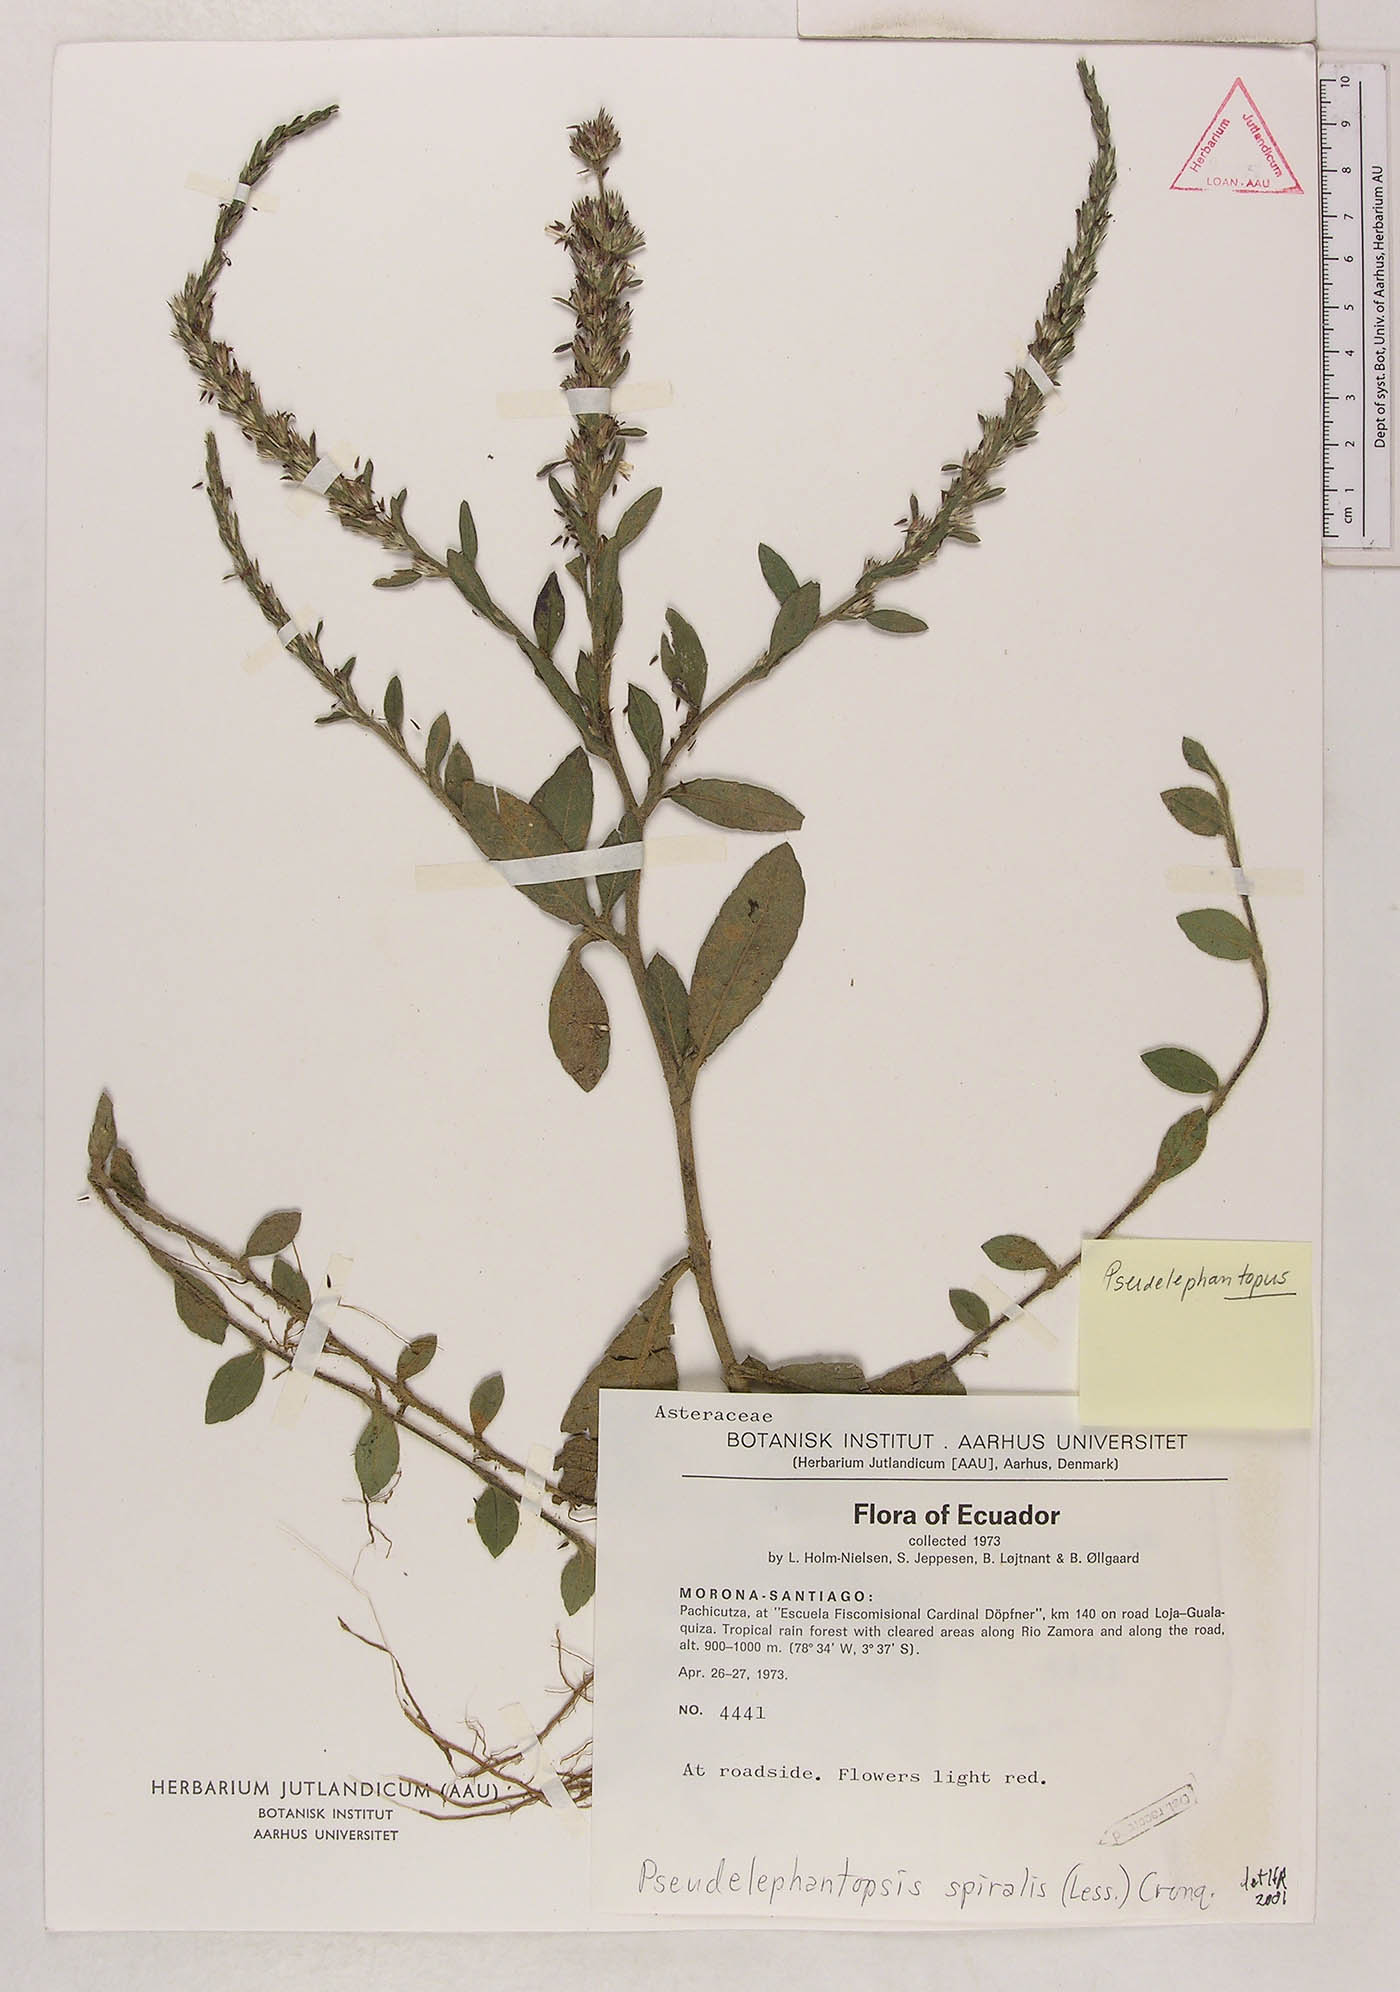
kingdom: Plantae
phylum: Tracheophyta
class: Magnoliopsida
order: Asterales
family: Asteraceae
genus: Pseudelephantopus
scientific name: Pseudelephantopus spiralis
